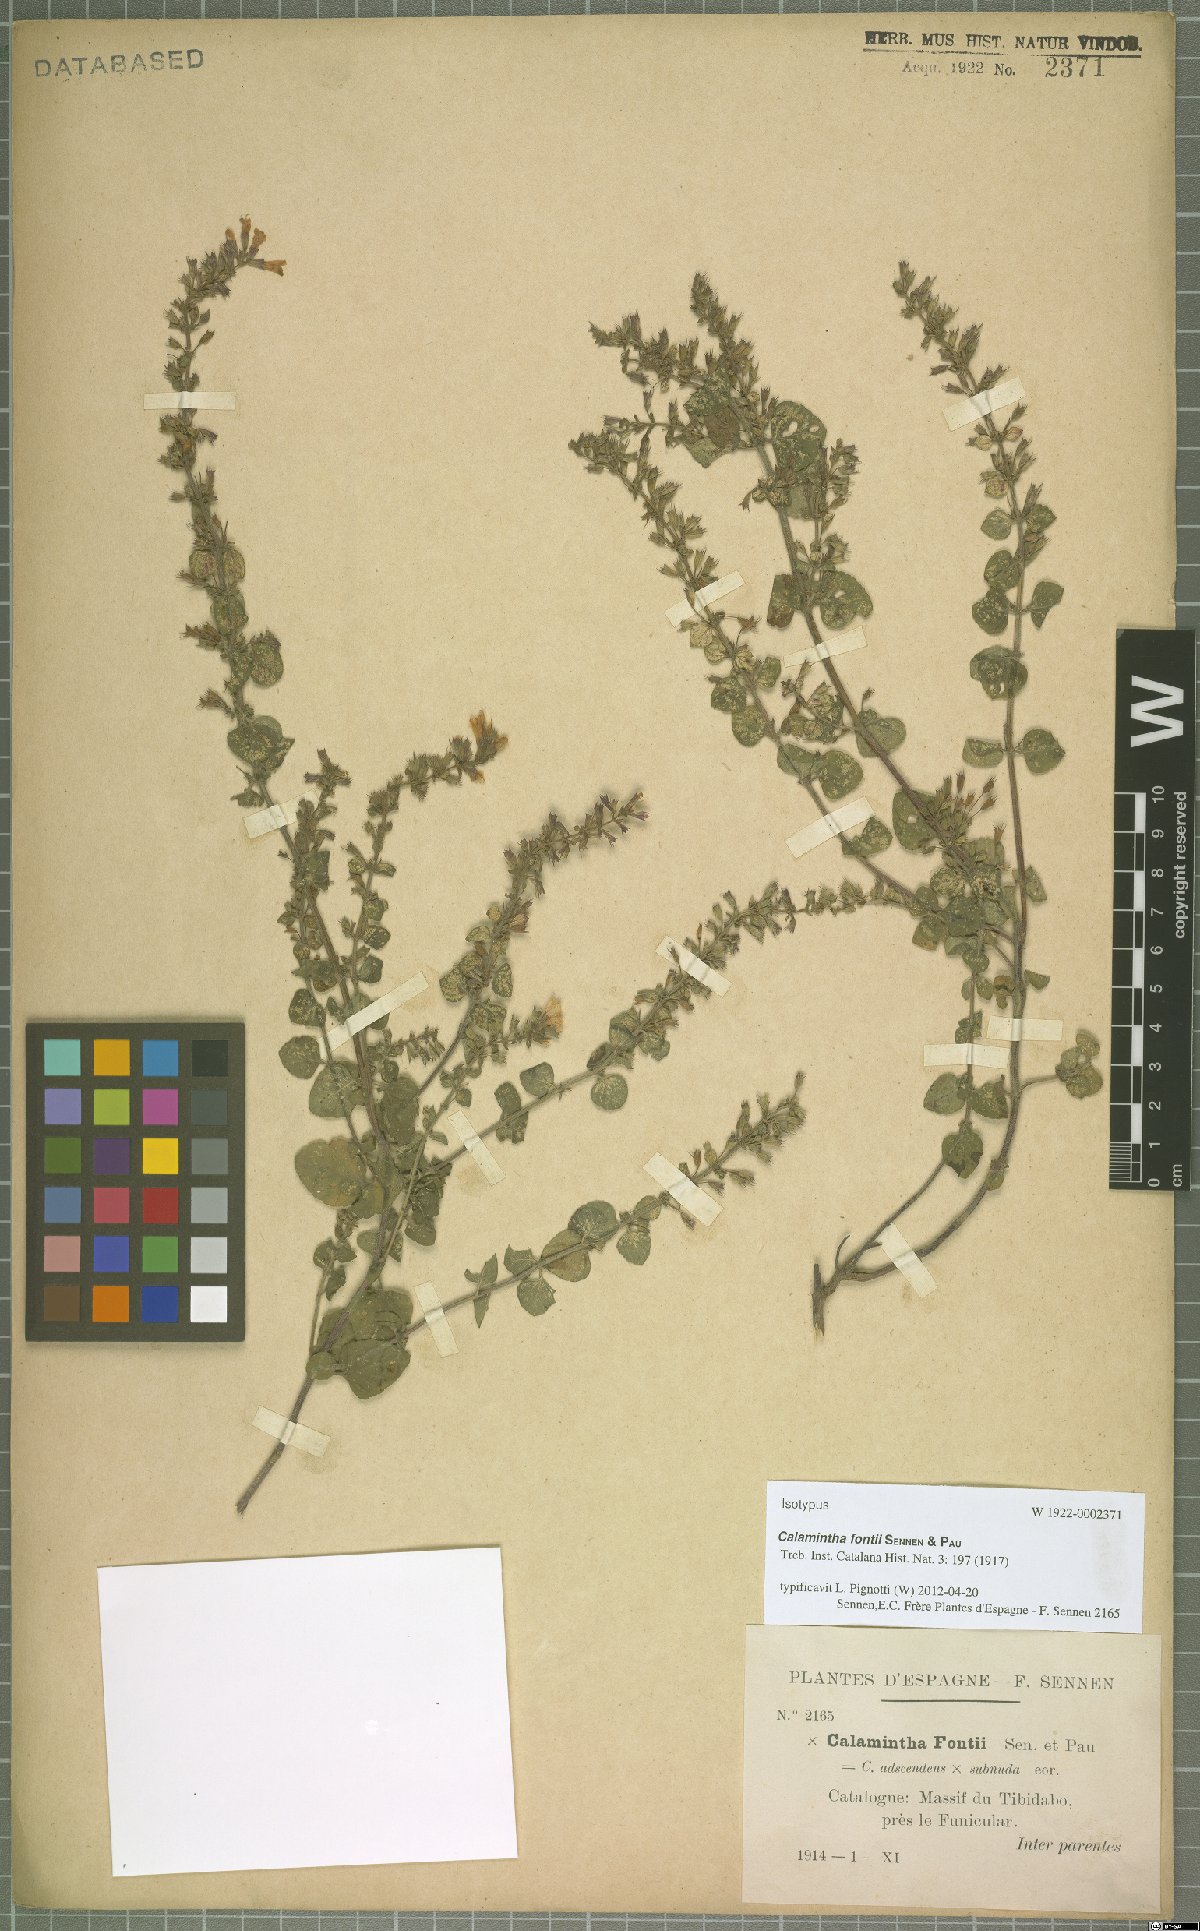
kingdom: Plantae
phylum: Tracheophyta
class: Magnoliopsida
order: Lamiales
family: Lamiaceae
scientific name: Lamiaceae
